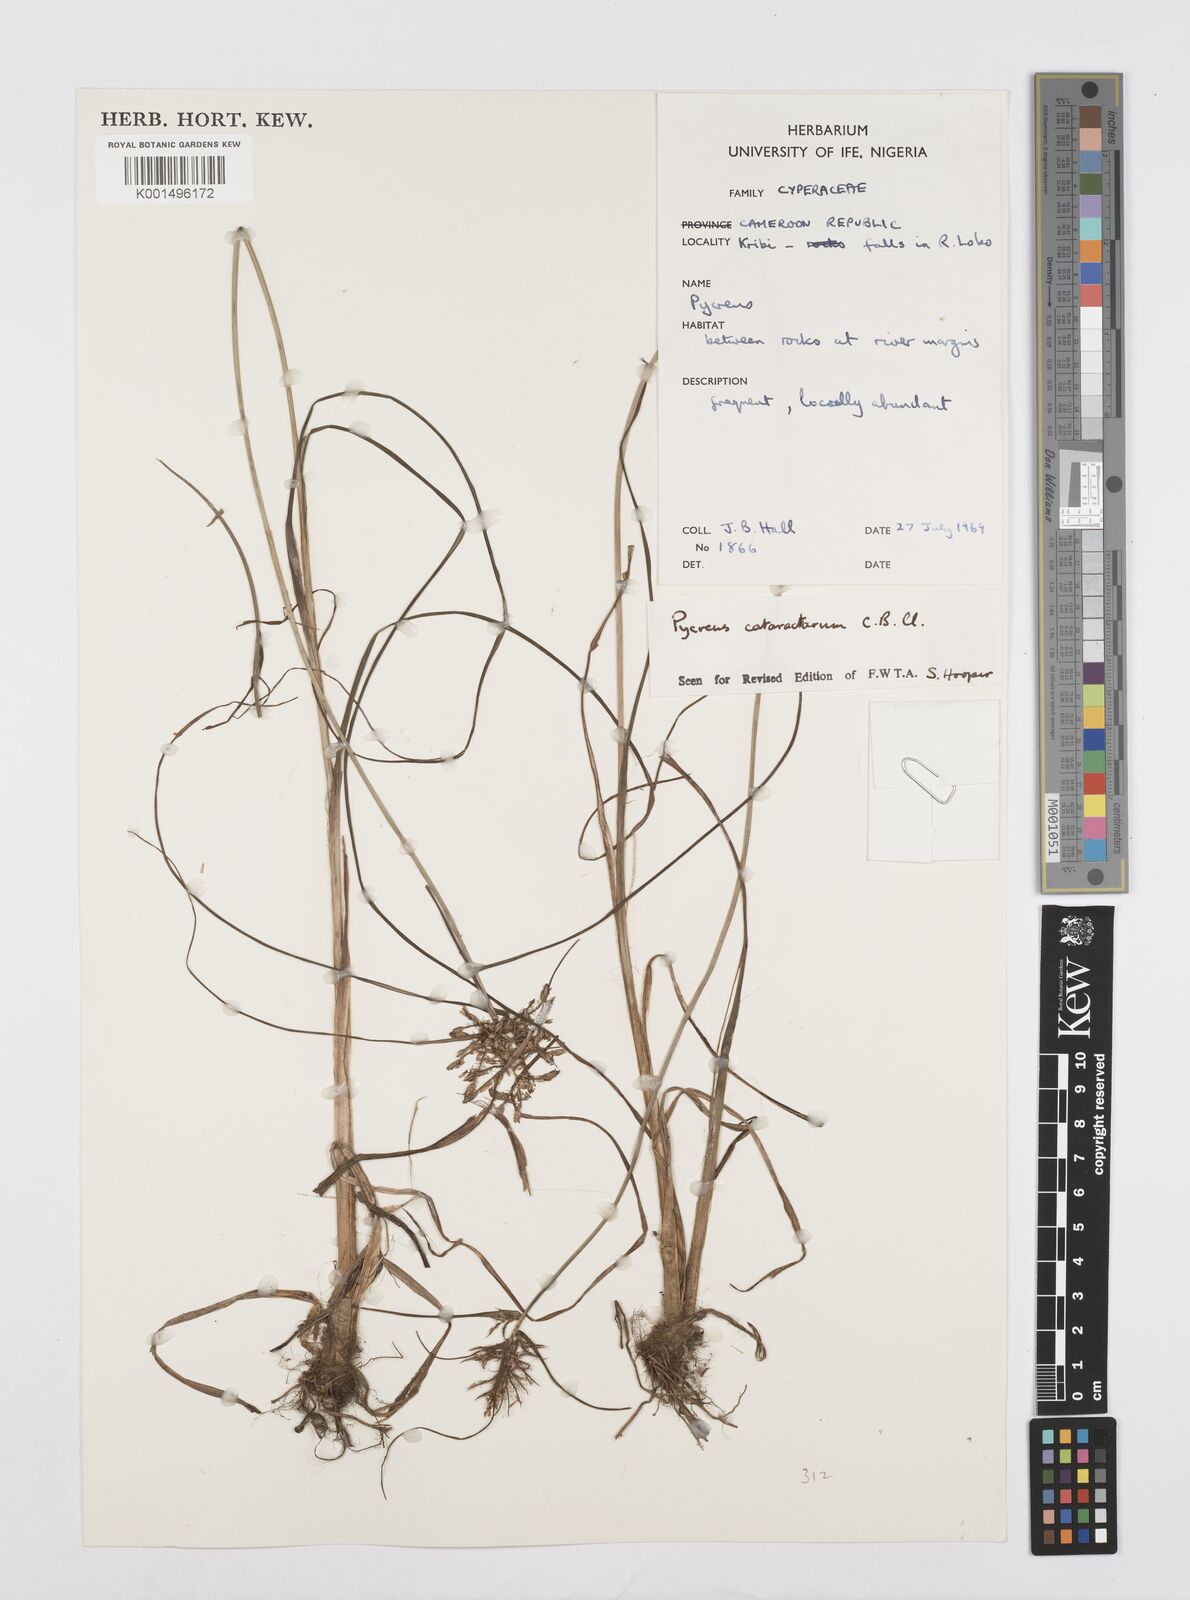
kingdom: Plantae
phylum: Tracheophyta
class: Liliopsida
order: Poales
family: Cyperaceae
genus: Cyperus
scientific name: Cyperus cataractarum
